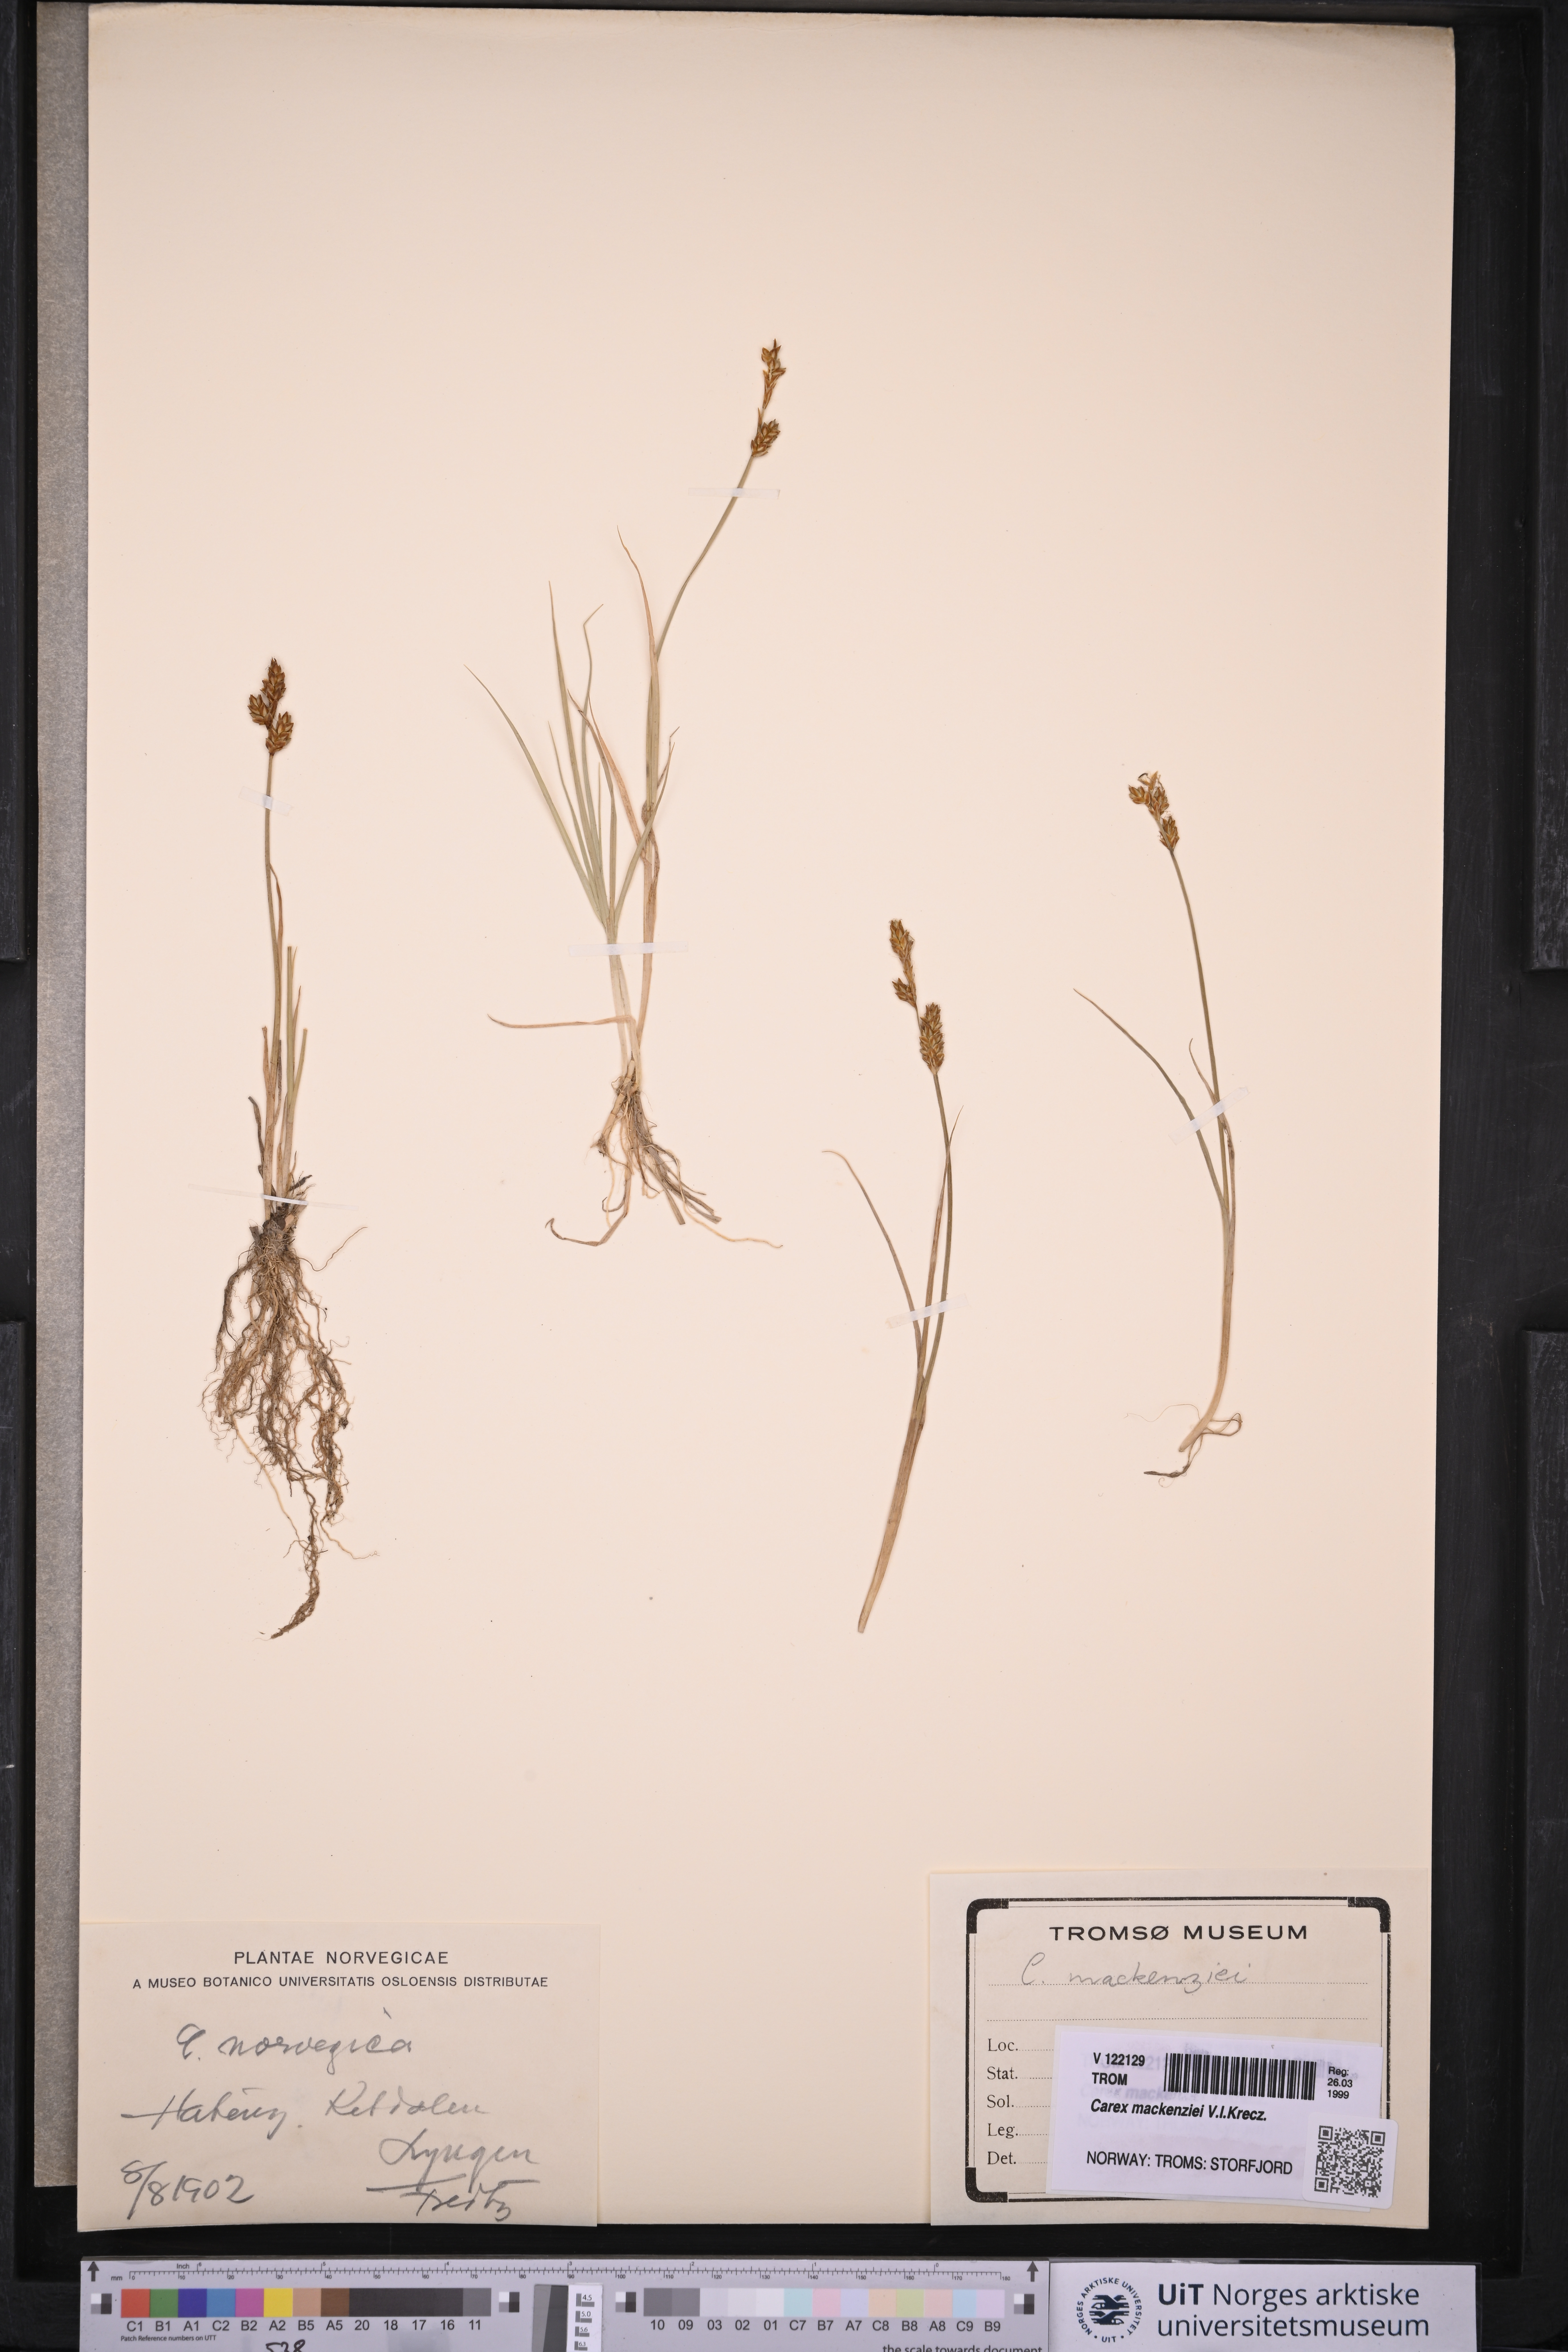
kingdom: Plantae
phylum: Tracheophyta
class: Liliopsida
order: Poales
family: Cyperaceae
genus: Carex
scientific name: Carex mackenziei
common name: Mackenzie's sedge
